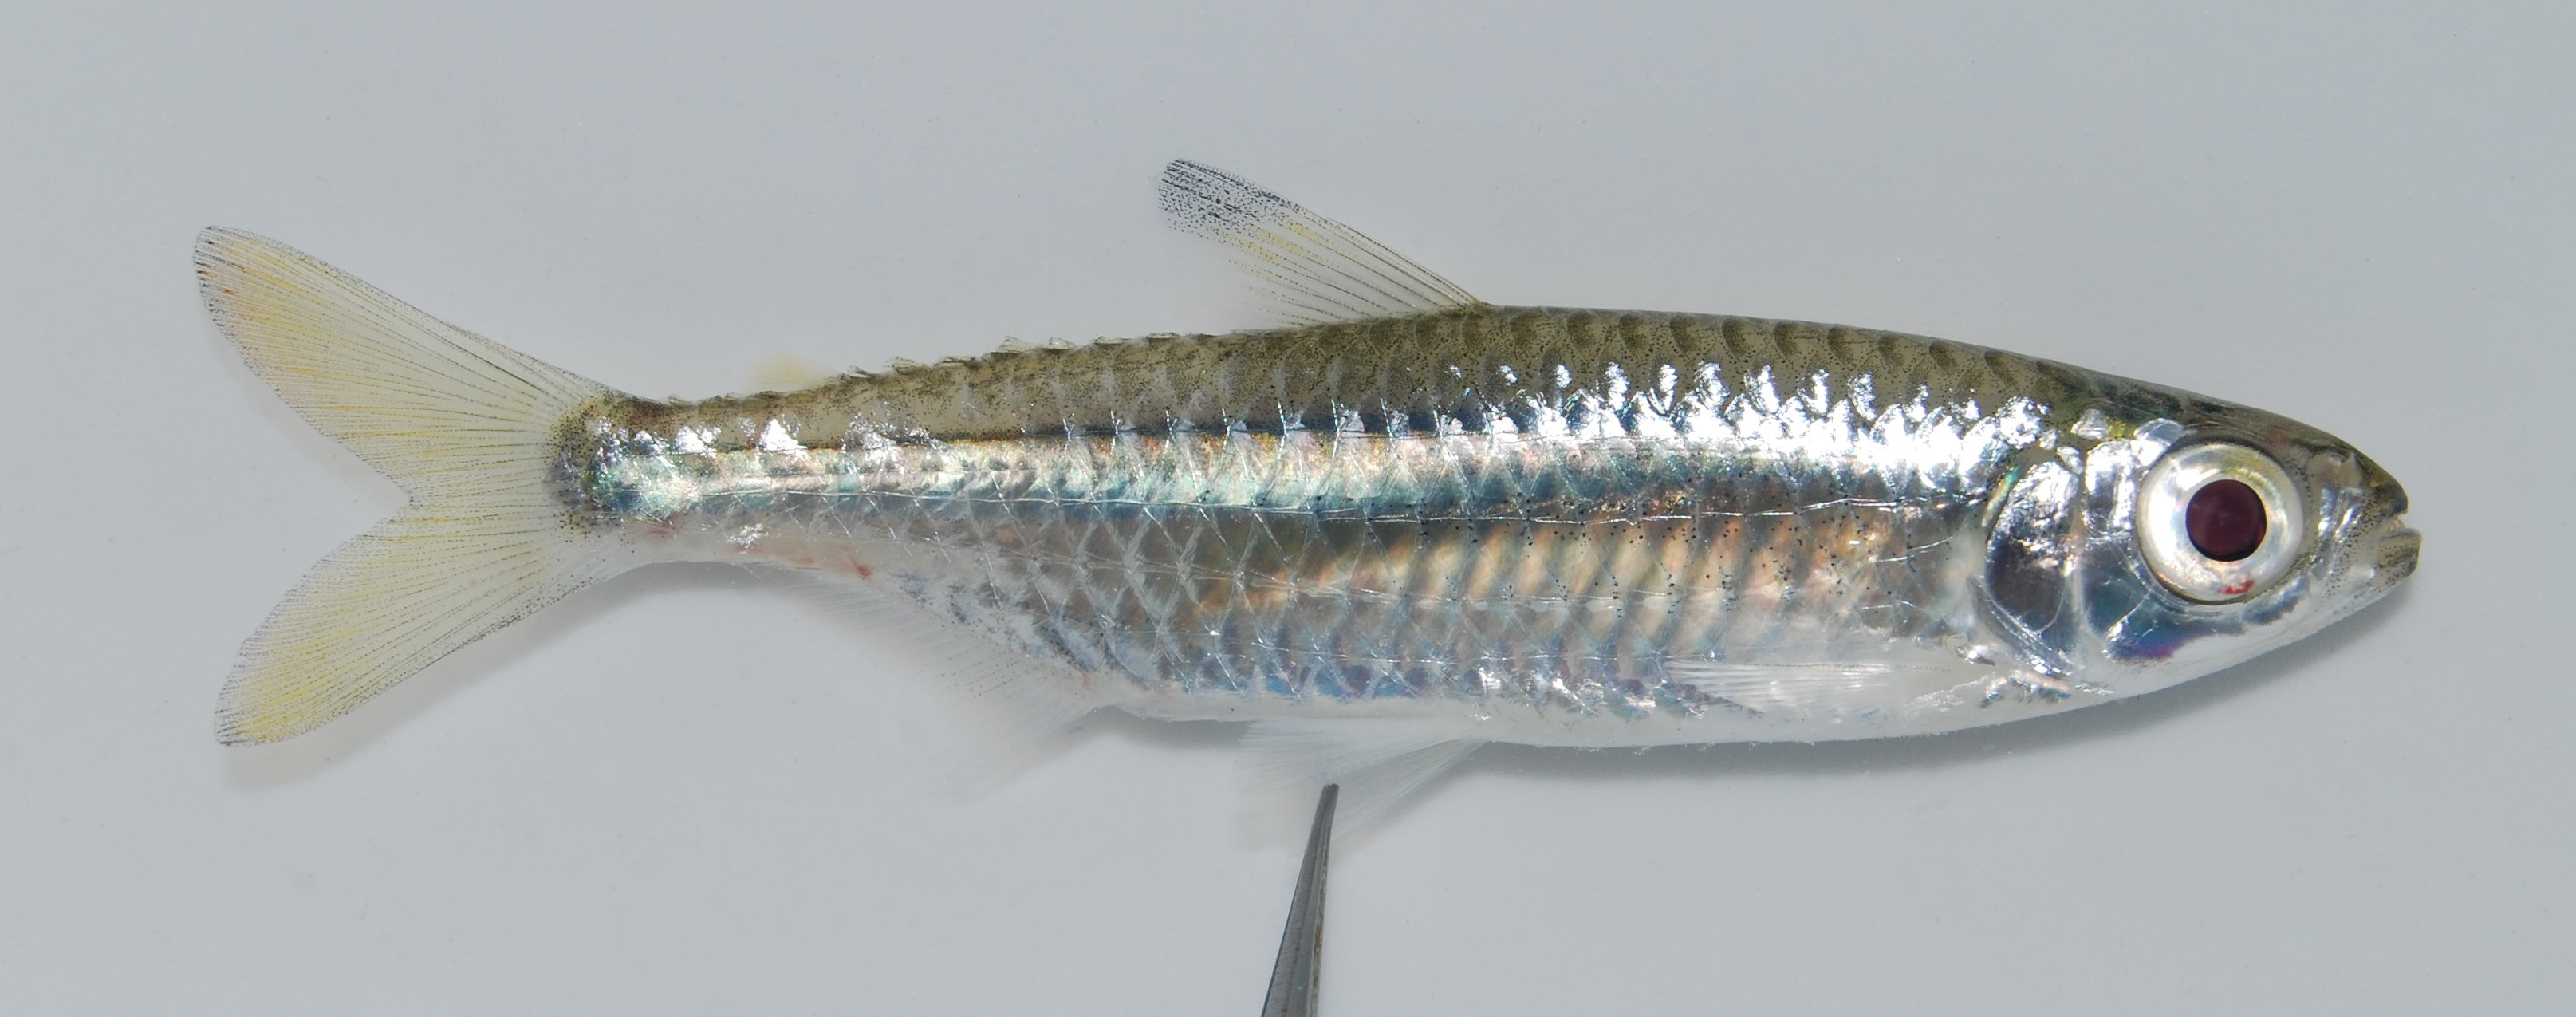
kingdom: Animalia
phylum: Chordata
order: Characiformes
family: Alestidae
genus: Micralestes
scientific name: Micralestes acutidens
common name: Silver robber
